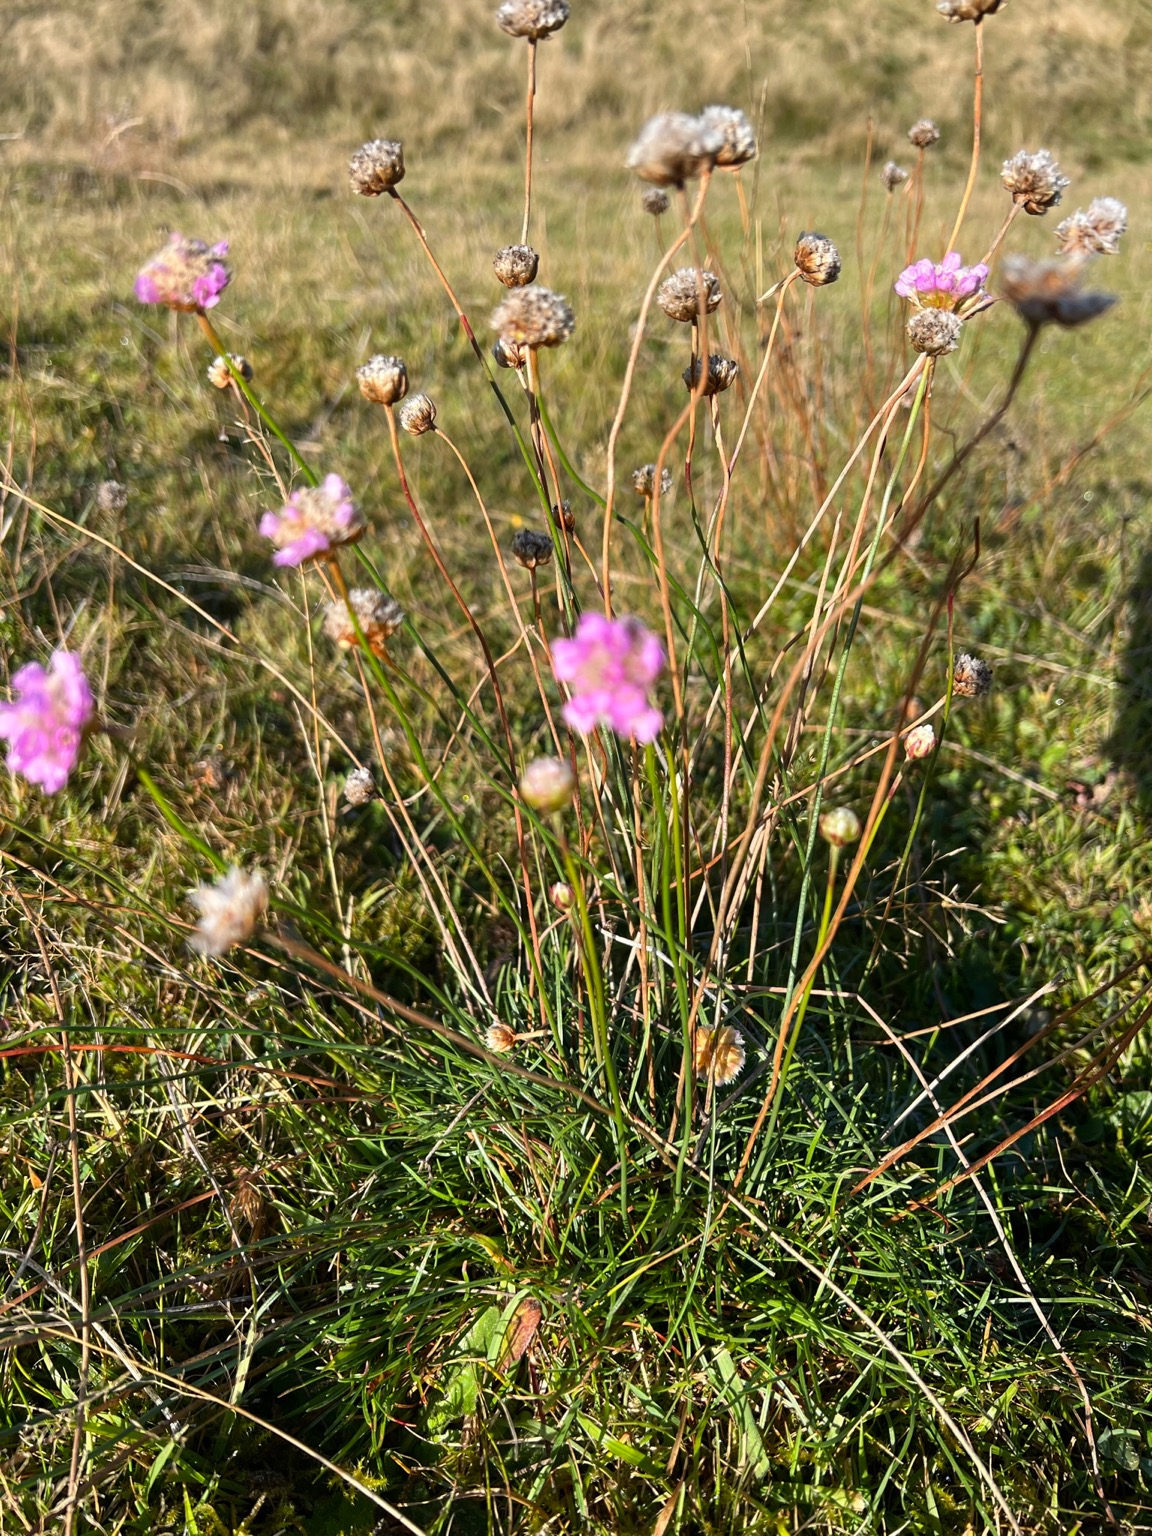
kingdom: Plantae
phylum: Tracheophyta
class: Magnoliopsida
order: Caryophyllales
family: Plumbaginaceae
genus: Armeria
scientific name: Armeria maritima
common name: Engelskgræs
